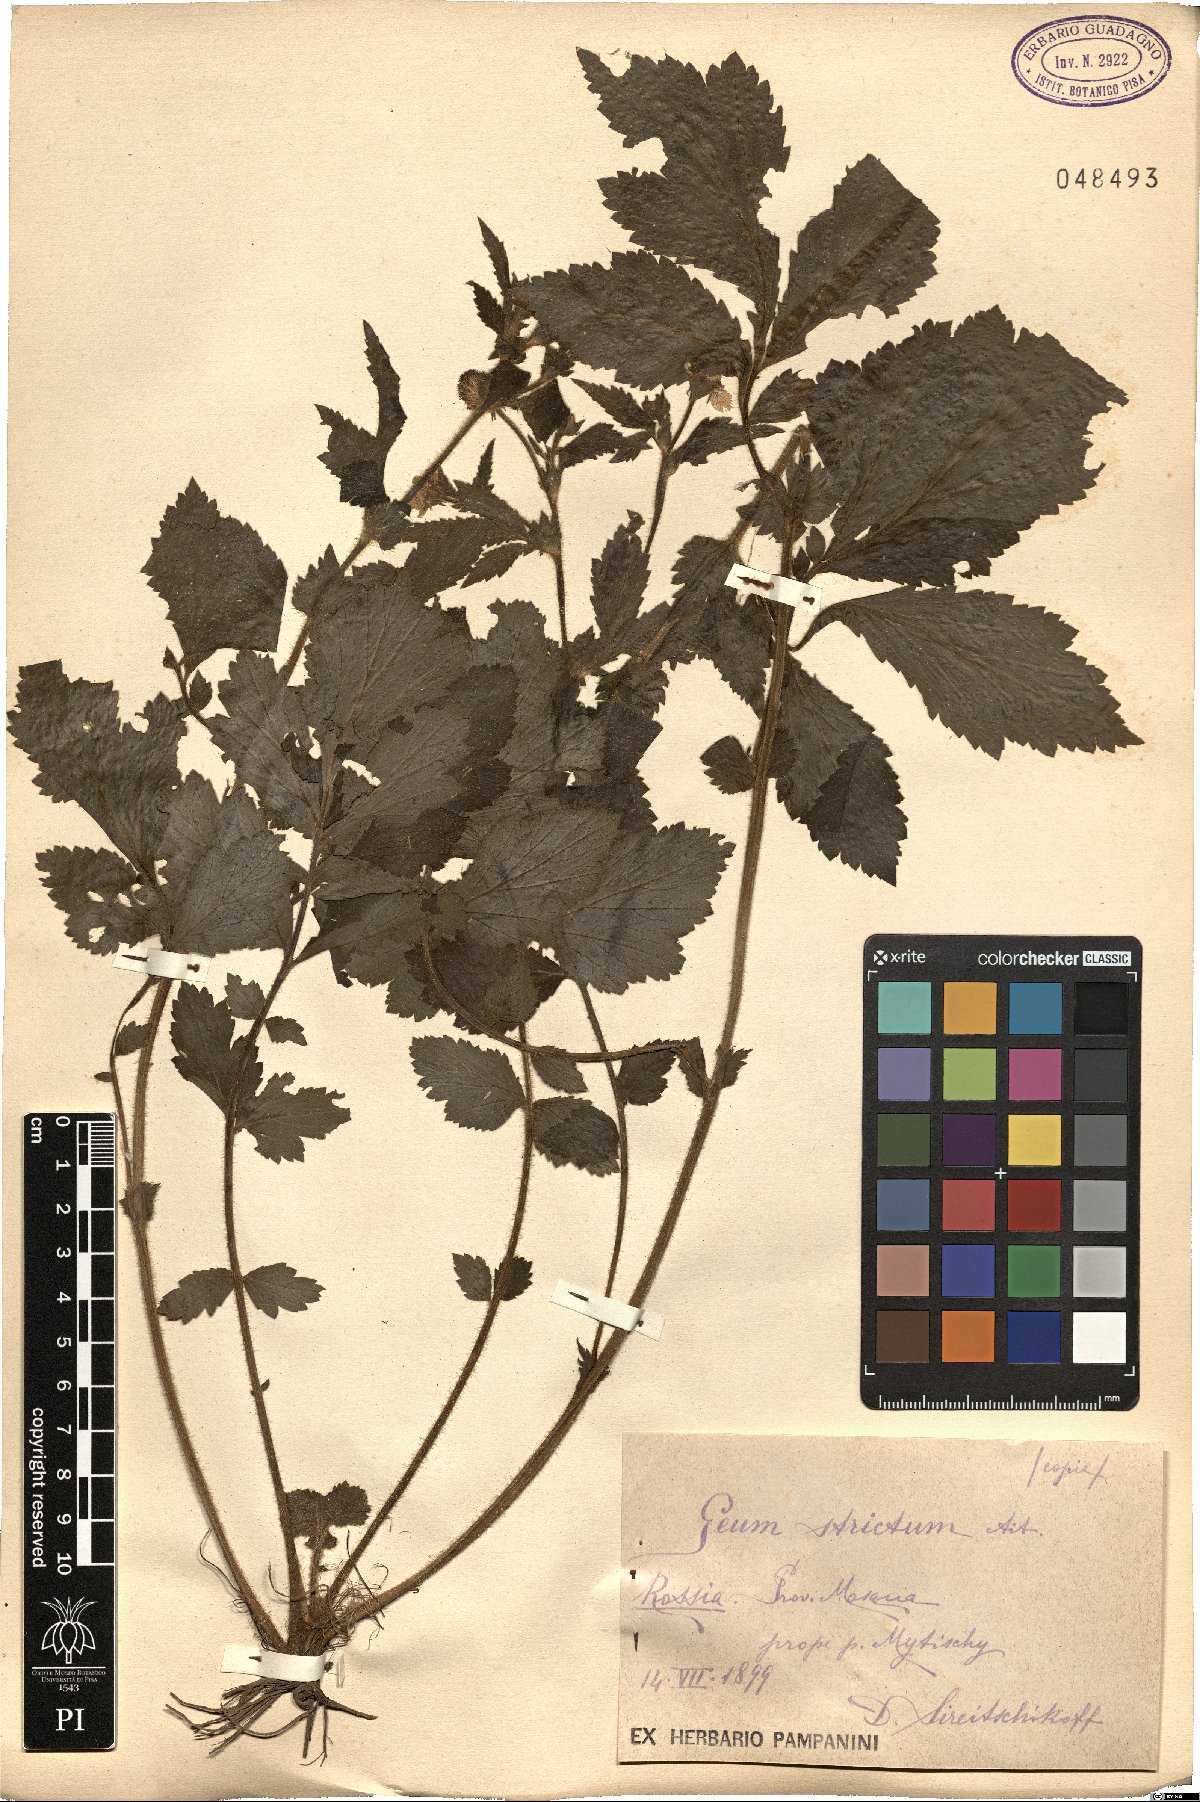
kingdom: Plantae
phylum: Tracheophyta
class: Magnoliopsida
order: Rosales
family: Rosaceae
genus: Geum
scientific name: Geum aleppicum
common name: Yellow avens
